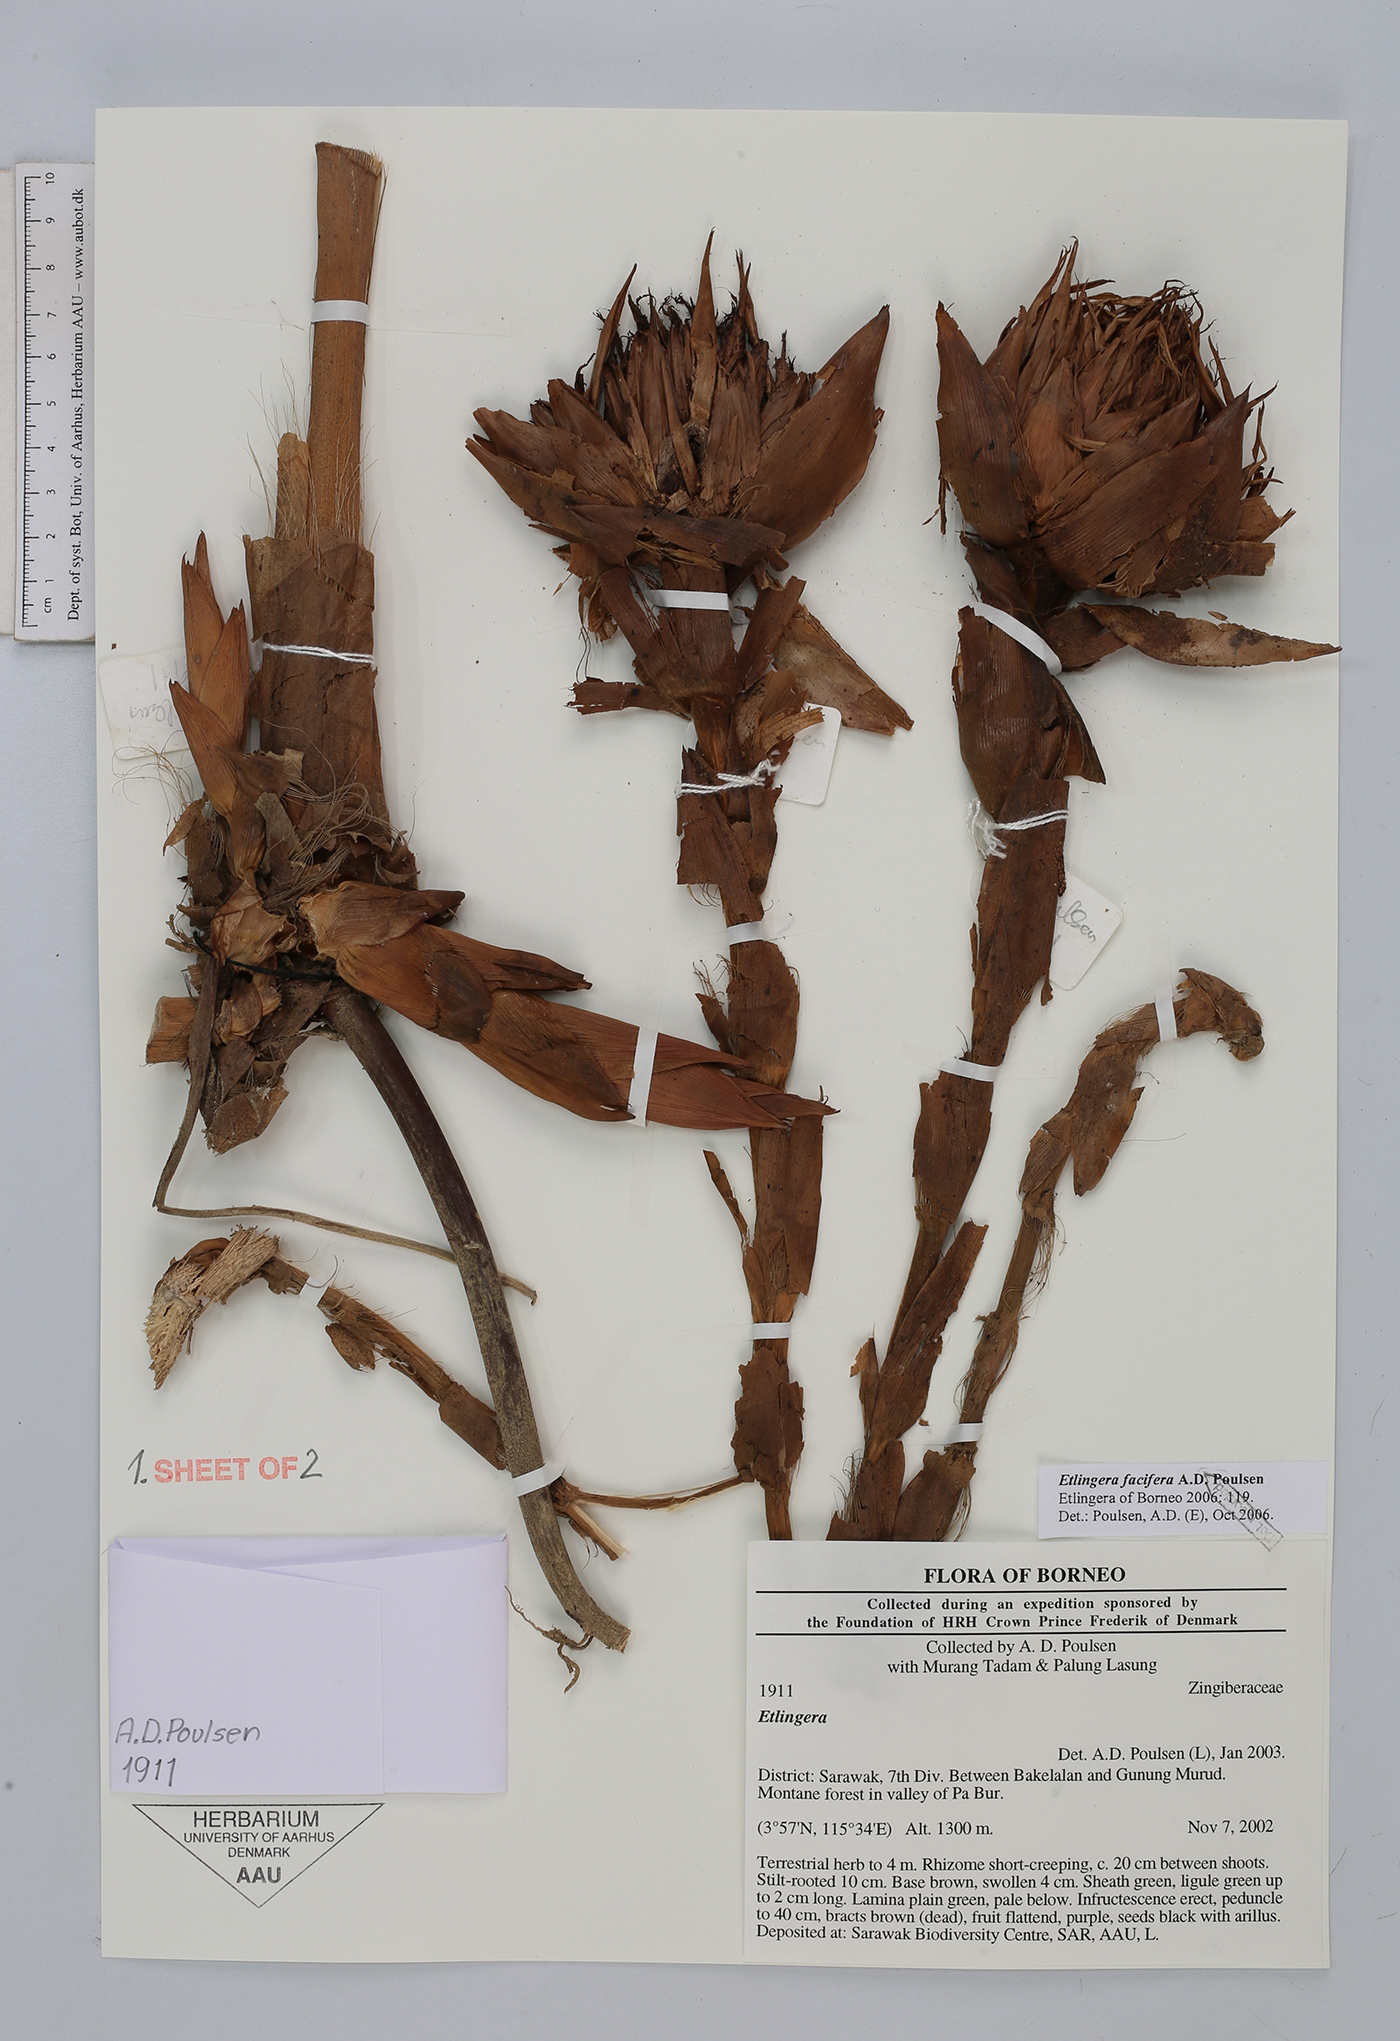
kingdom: Plantae
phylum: Tracheophyta
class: Liliopsida
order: Zingiberales
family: Zingiberaceae
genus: Etlingera
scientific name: Etlingera facifera
